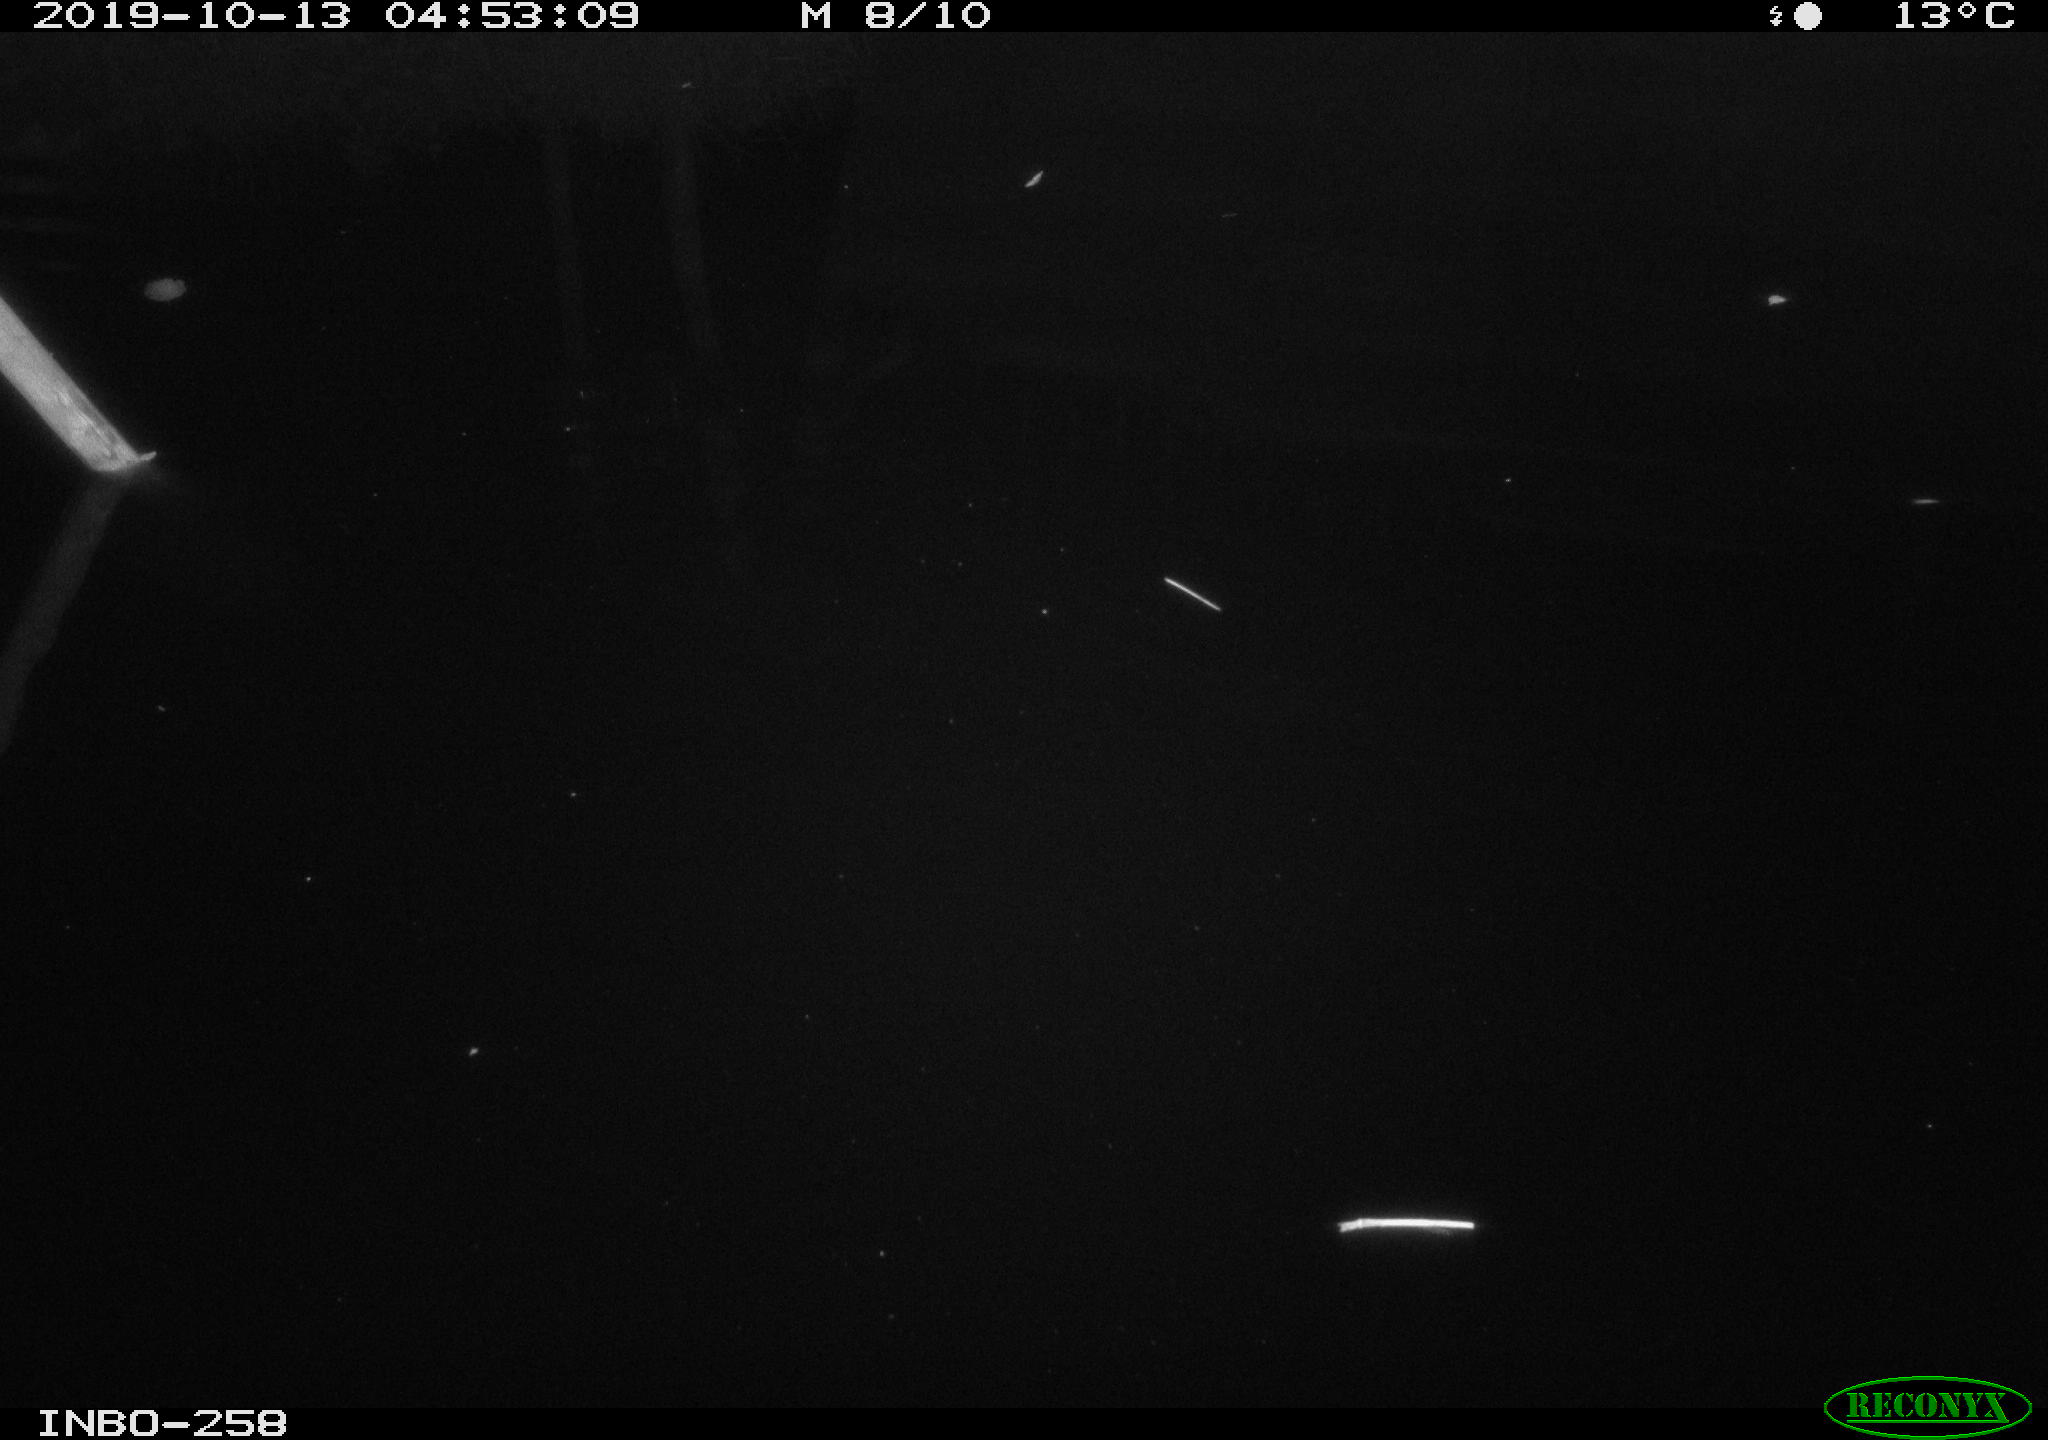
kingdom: Animalia
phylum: Chordata
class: Mammalia
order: Rodentia
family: Muridae
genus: Rattus
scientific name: Rattus norvegicus
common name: Brown rat
